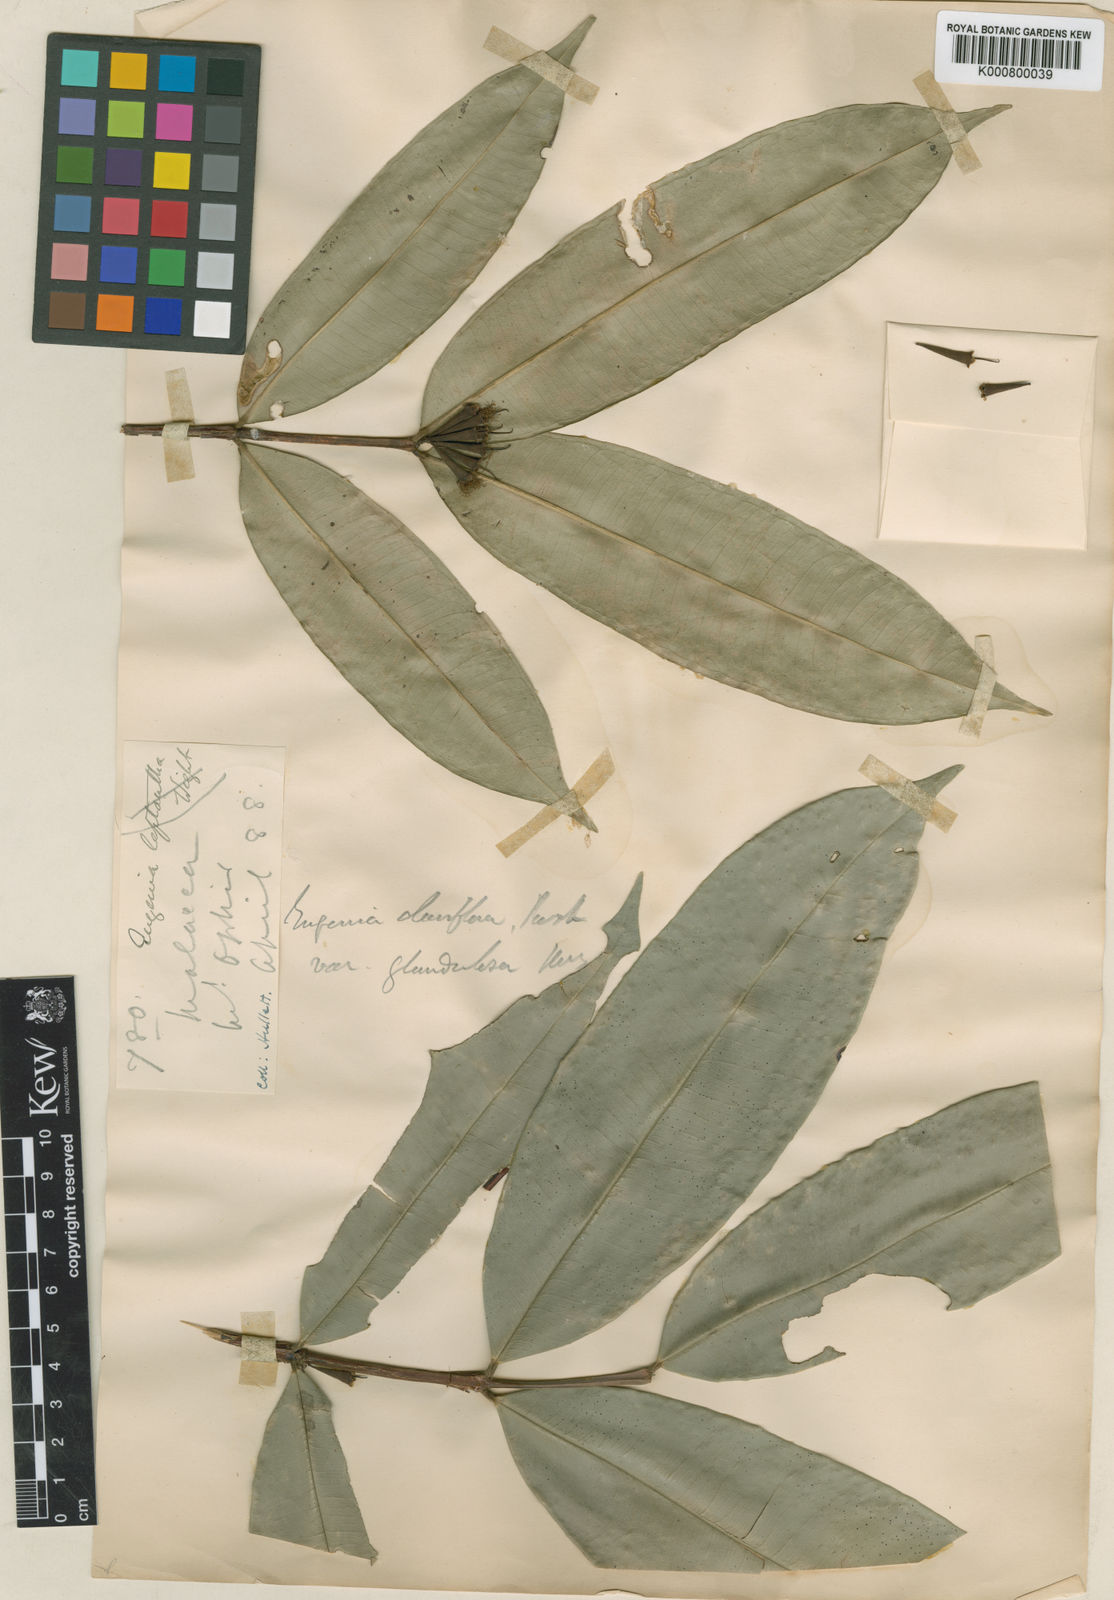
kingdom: Plantae
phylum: Tracheophyta
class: Magnoliopsida
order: Myrtales
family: Myrtaceae
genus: Syzygium
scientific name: Syzygium claviflorum
